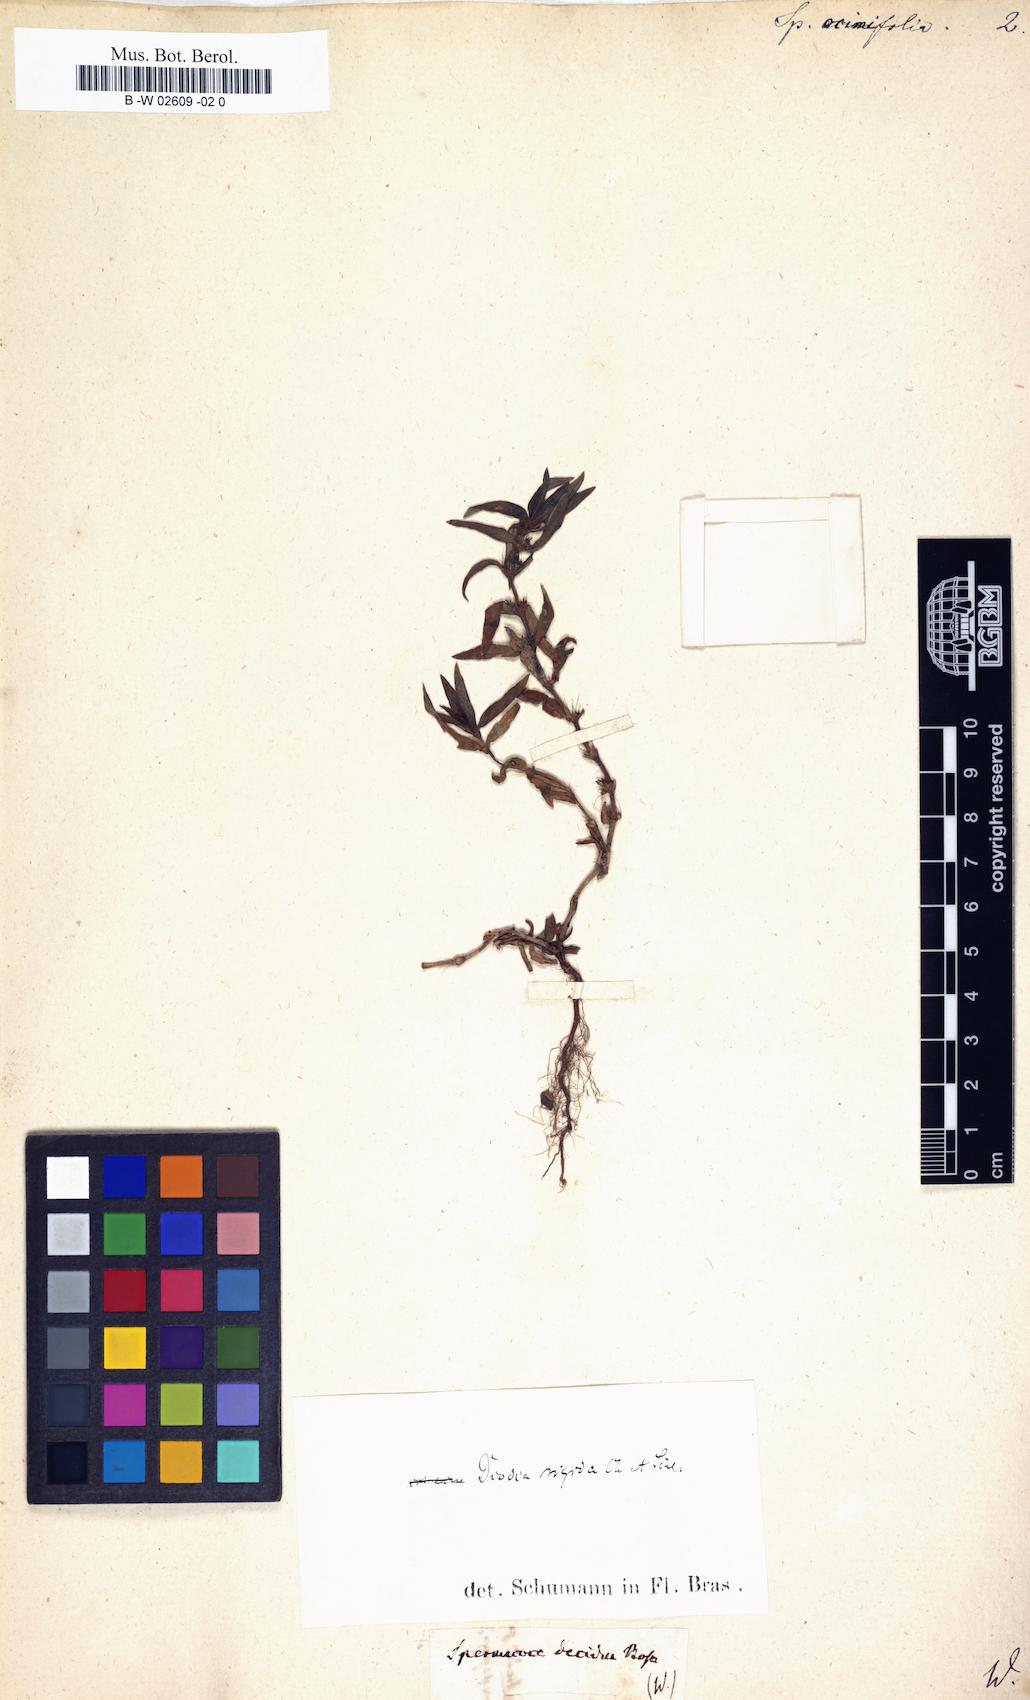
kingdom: Plantae
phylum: Tracheophyta
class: Magnoliopsida
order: Gentianales
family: Rubiaceae
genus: Spermacoce
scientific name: Spermacoce ocymifolia
